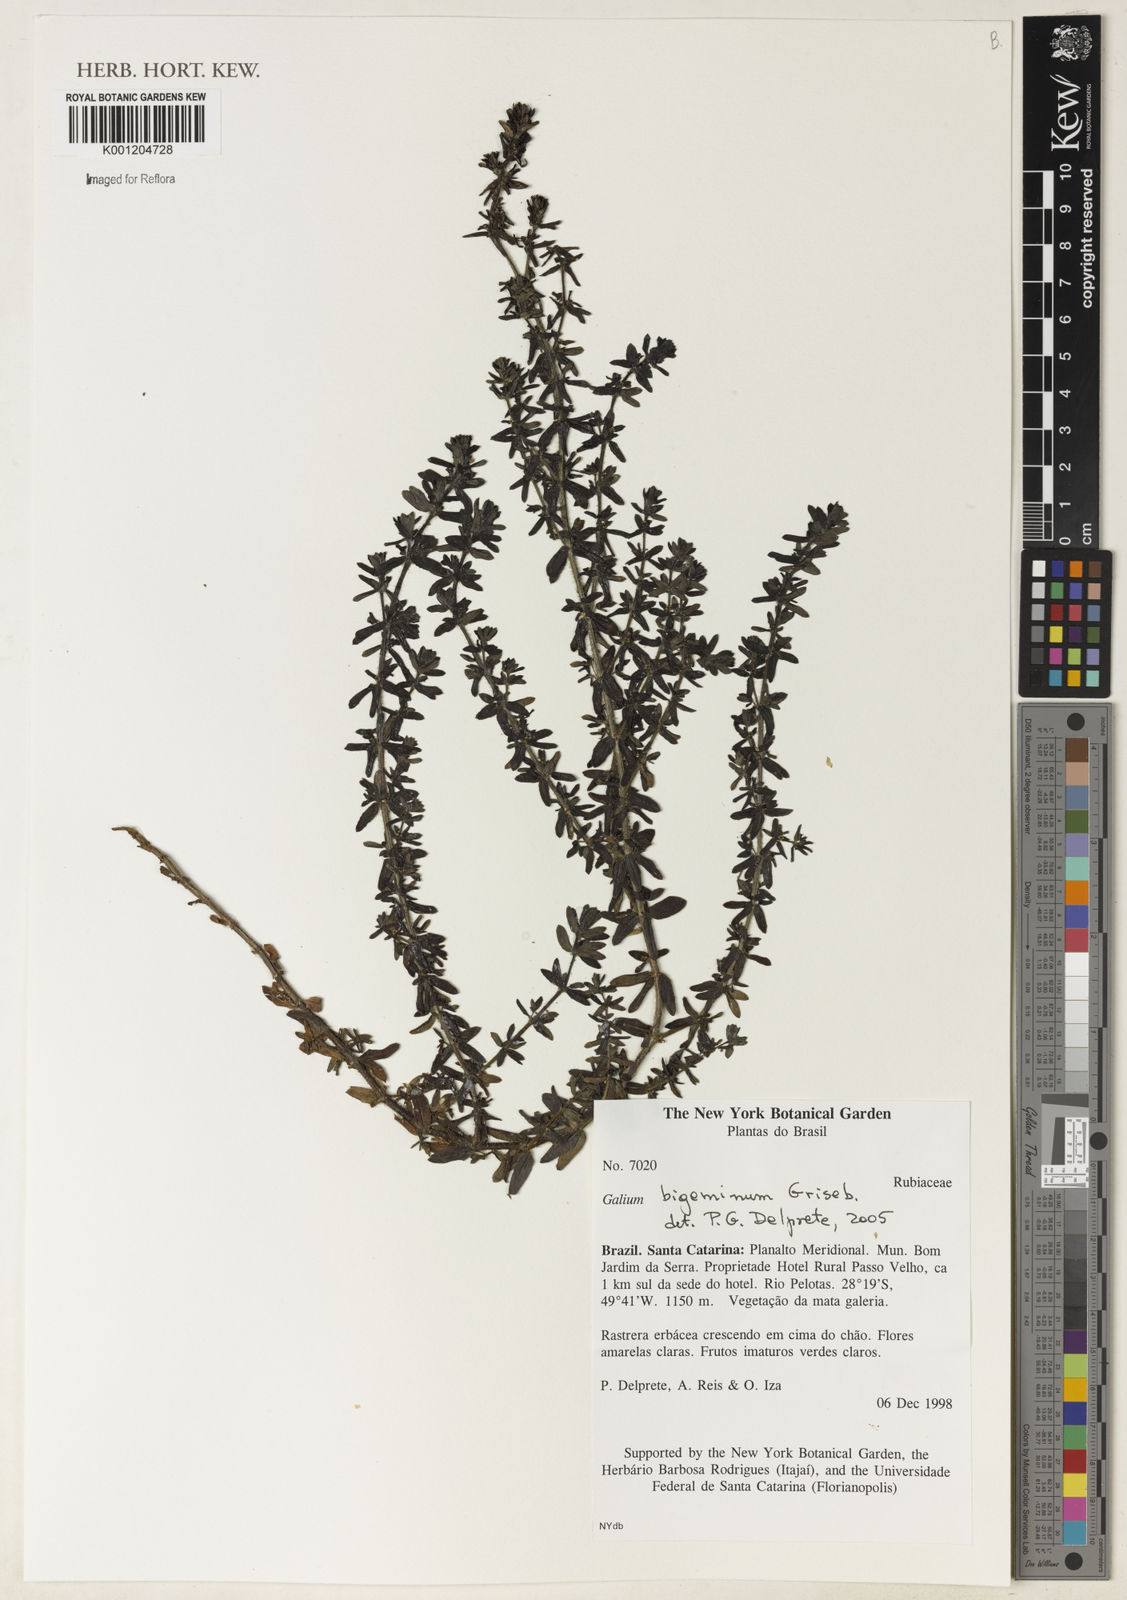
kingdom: Plantae
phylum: Tracheophyta
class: Magnoliopsida
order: Gentianales
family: Rubiaceae
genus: Galium
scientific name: Galium bigeminum
